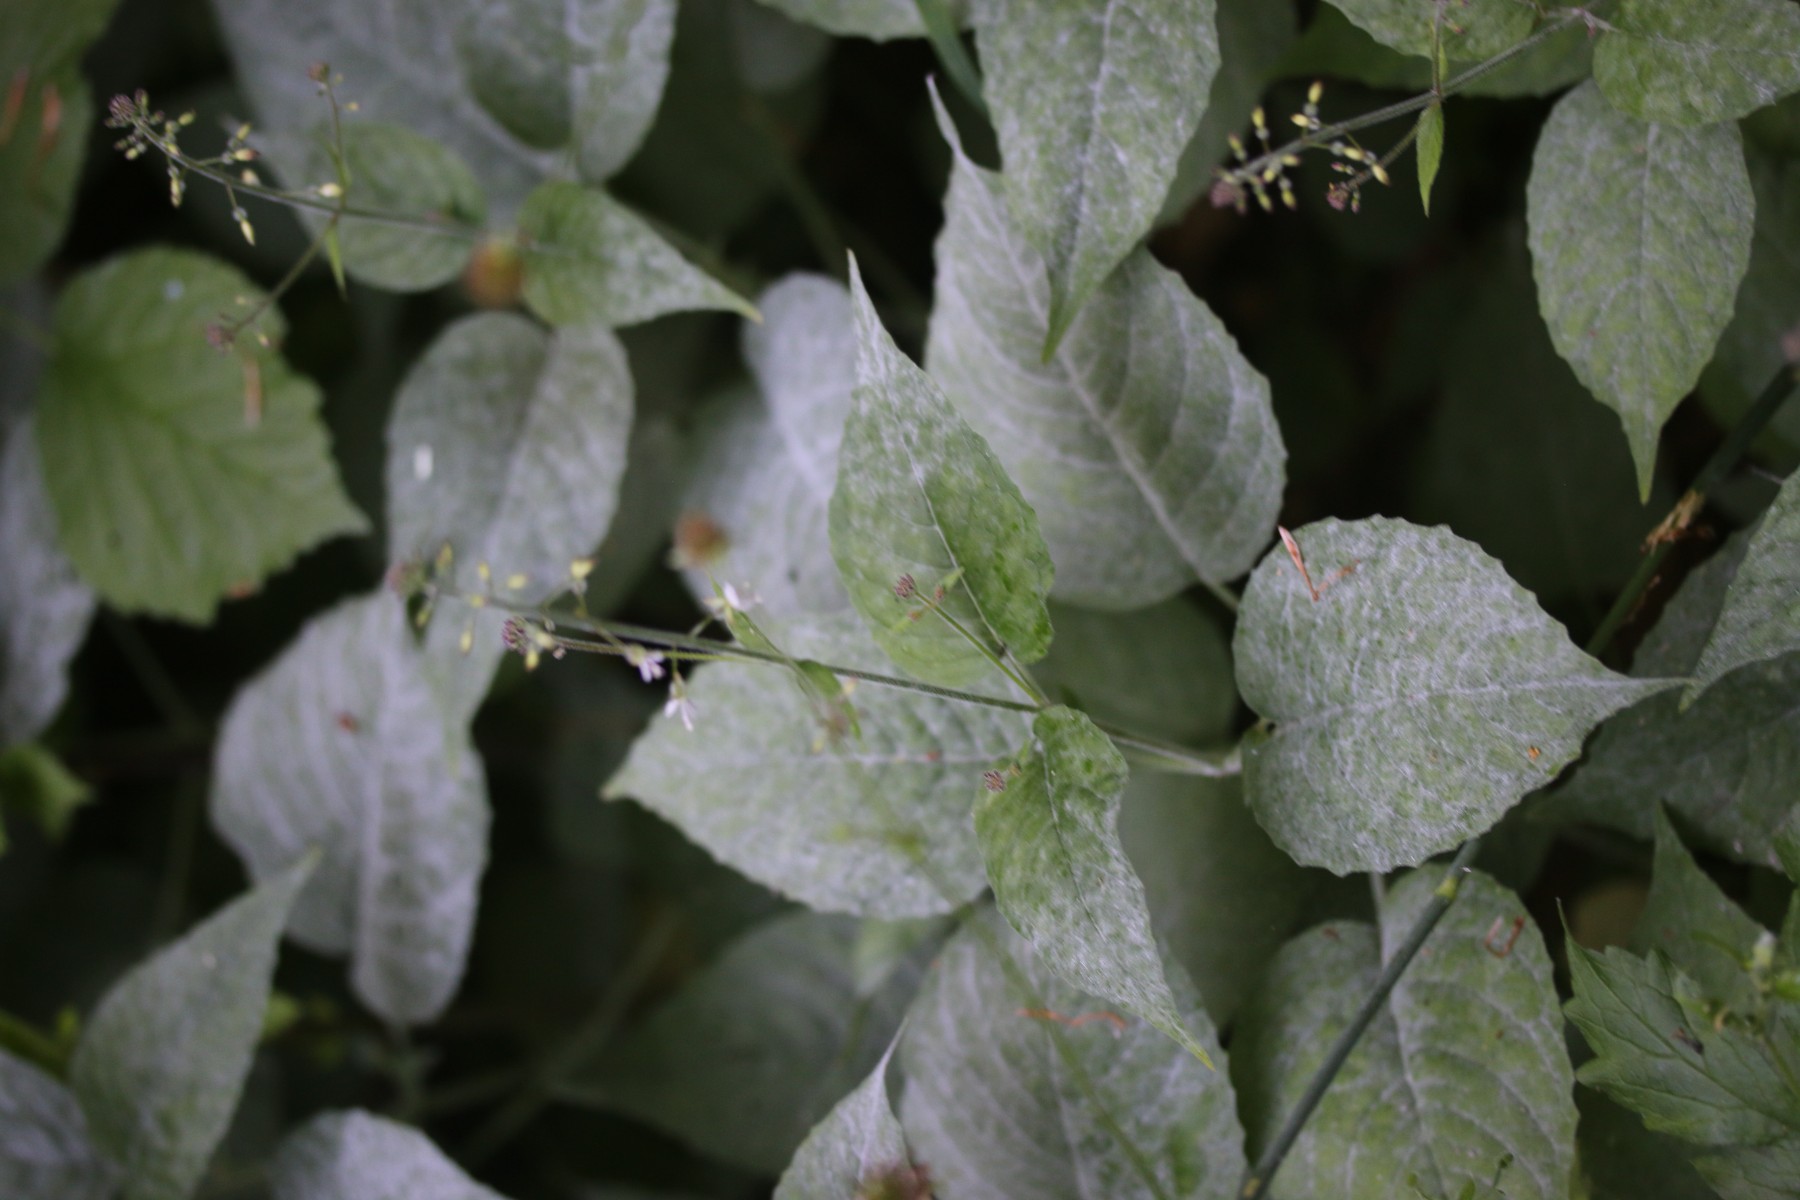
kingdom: Fungi
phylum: Ascomycota
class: Leotiomycetes
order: Helotiales
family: Erysiphaceae
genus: Erysiphe
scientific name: Erysiphe circaeae
